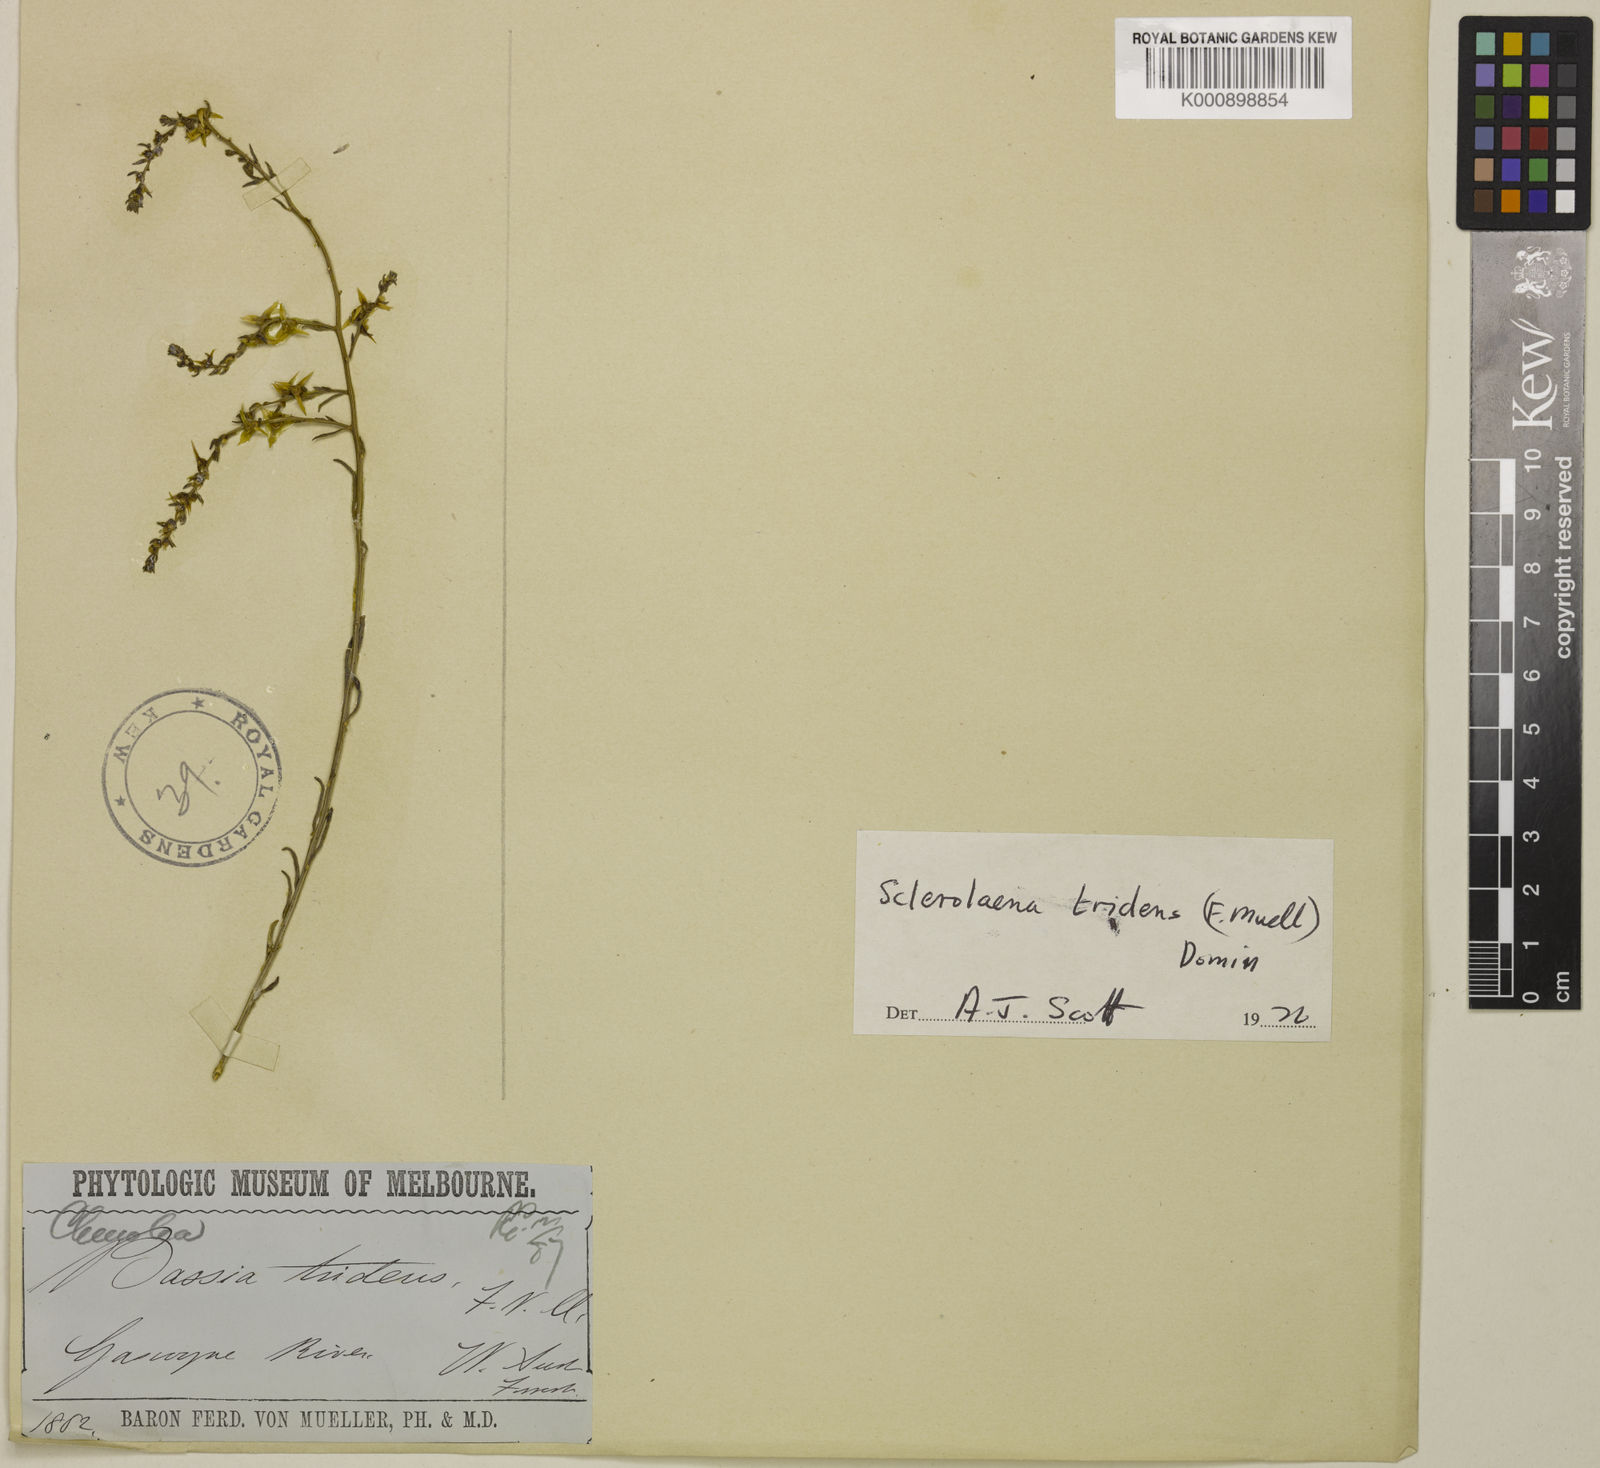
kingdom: Plantae
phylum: Tracheophyta
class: Magnoliopsida
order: Caryophyllales
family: Amaranthaceae
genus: Sclerolaena
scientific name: Sclerolaena tridens
